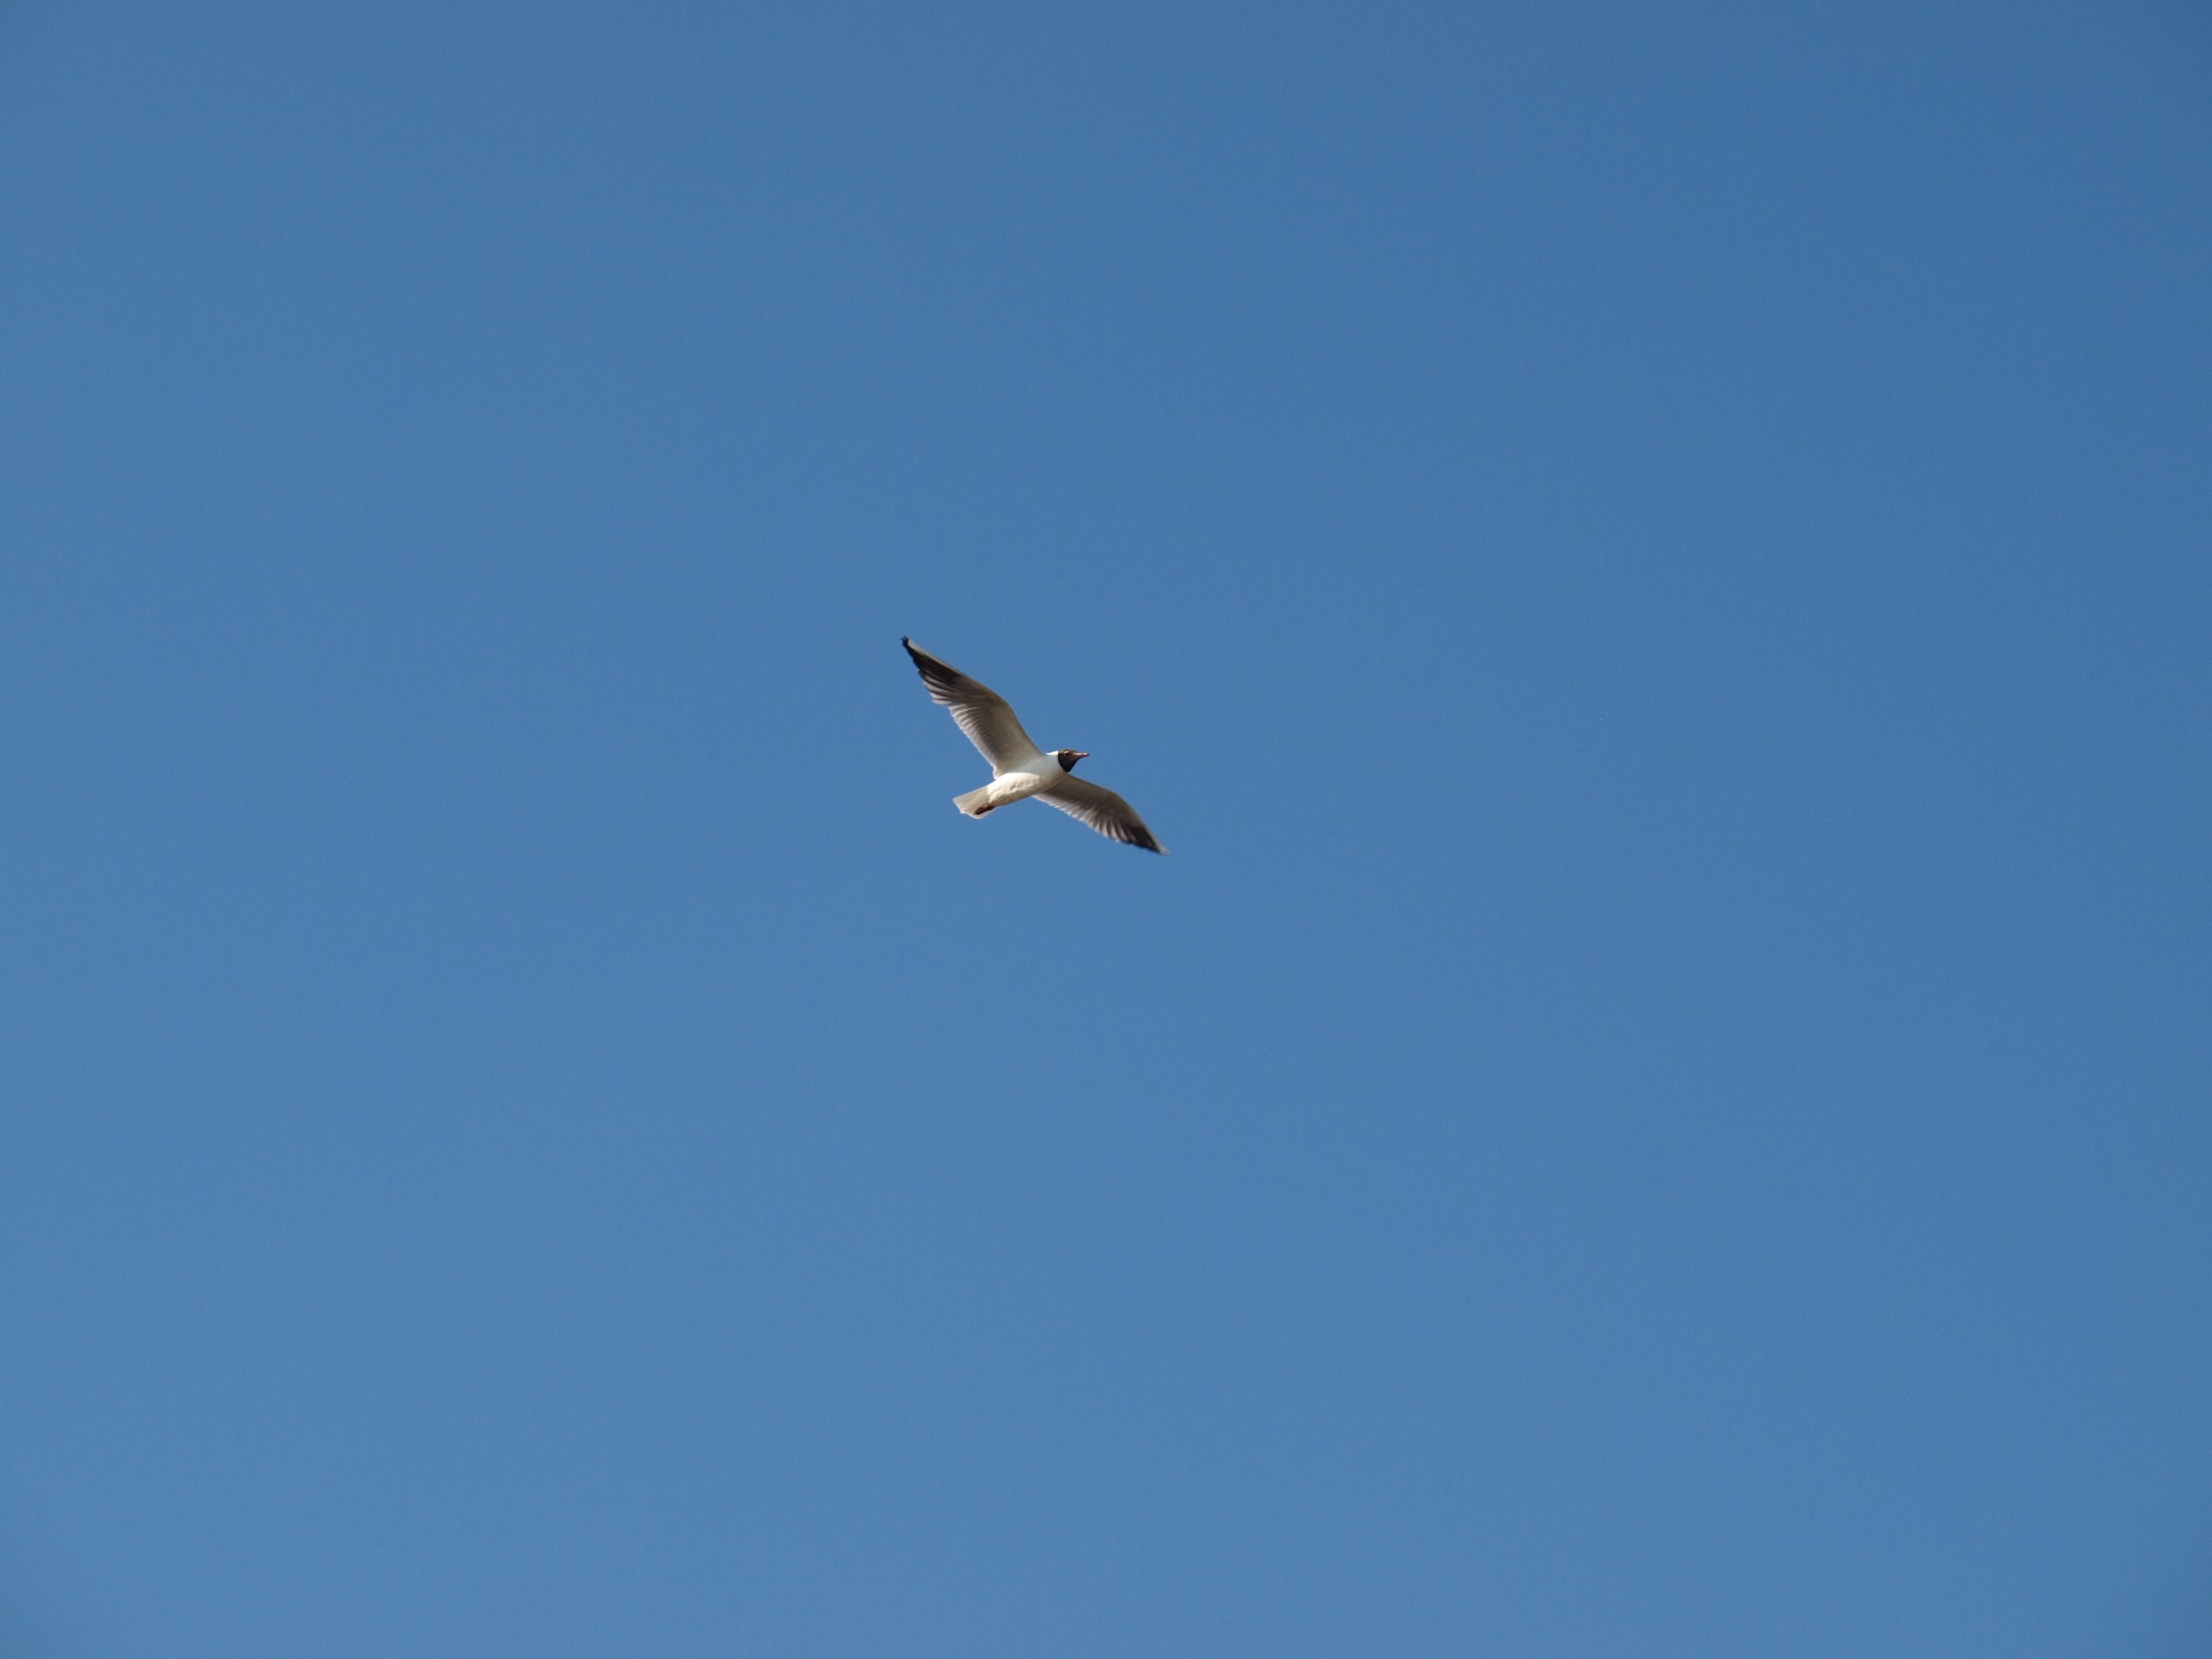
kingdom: Animalia
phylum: Chordata
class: Aves
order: Charadriiformes
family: Laridae
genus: Chroicocephalus
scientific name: Chroicocephalus ridibundus
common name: Hættemåge
